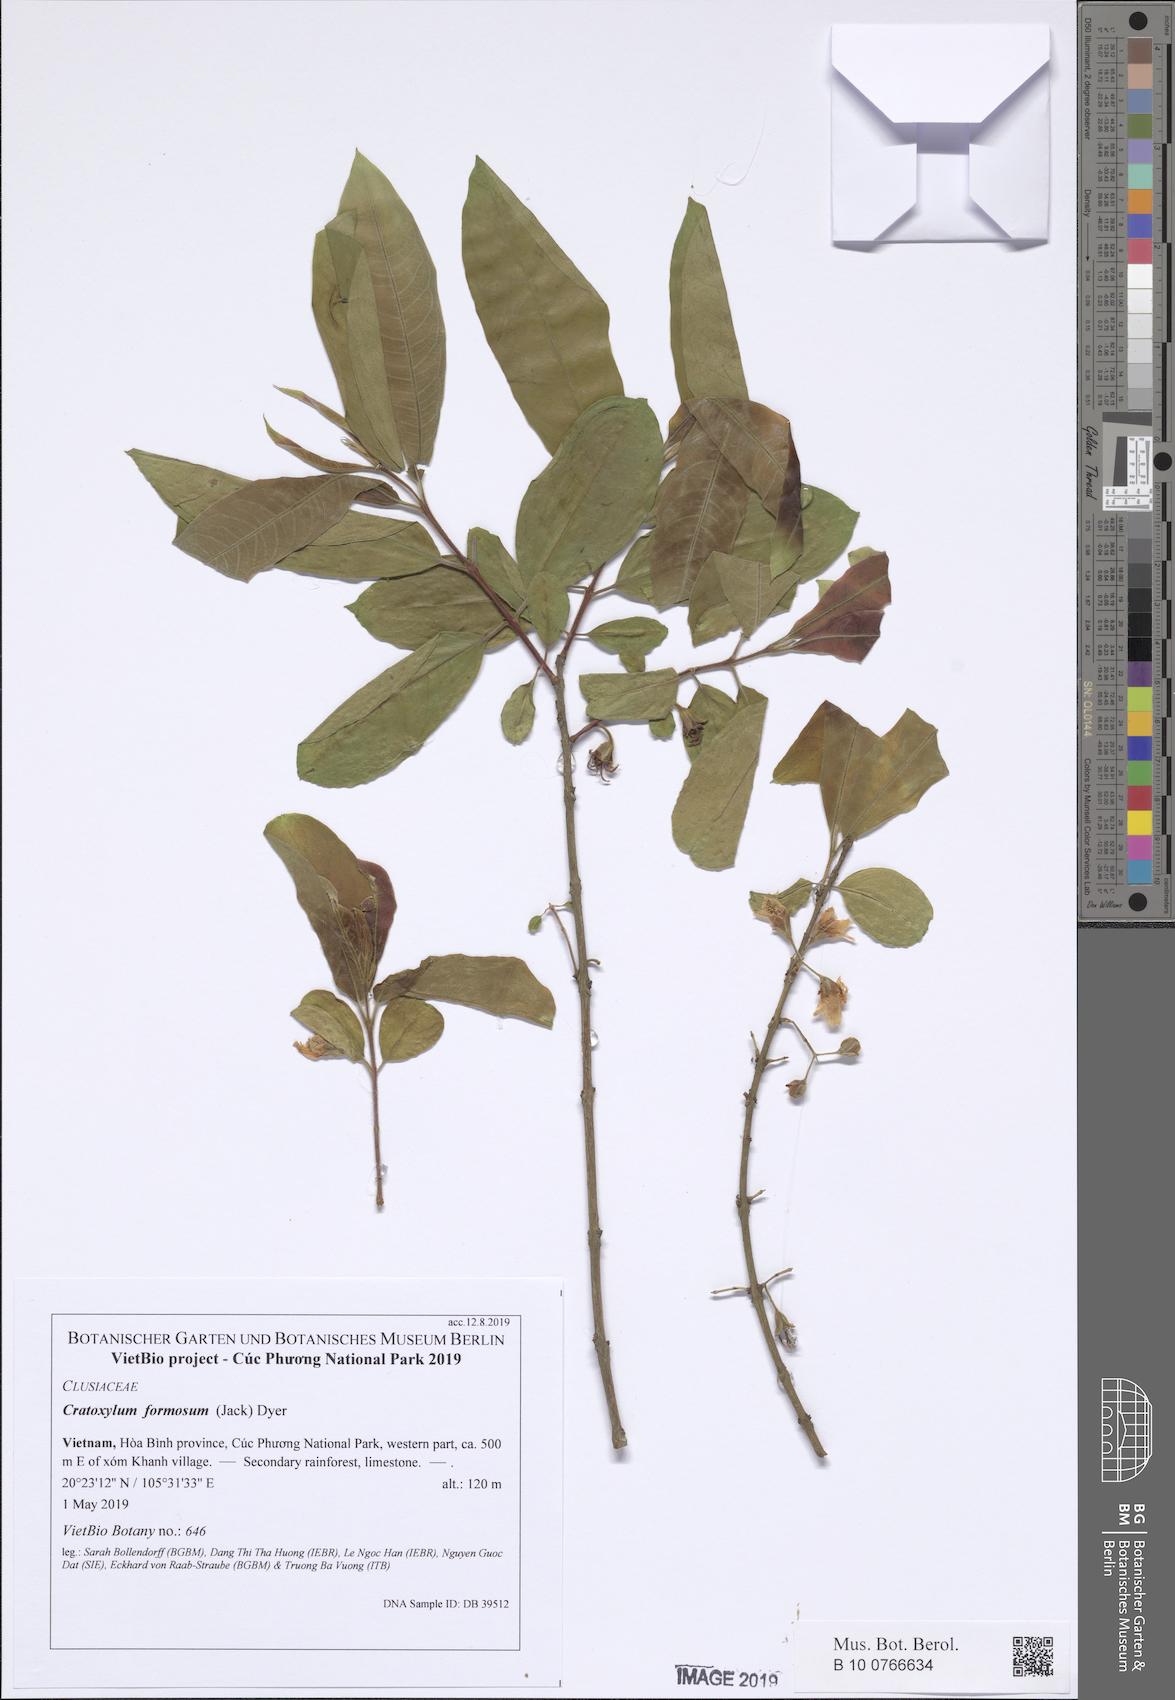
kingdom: Plantae
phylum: Tracheophyta
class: Magnoliopsida
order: Malpighiales
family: Hypericaceae
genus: Cratoxylum
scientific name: Cratoxylum formosum
